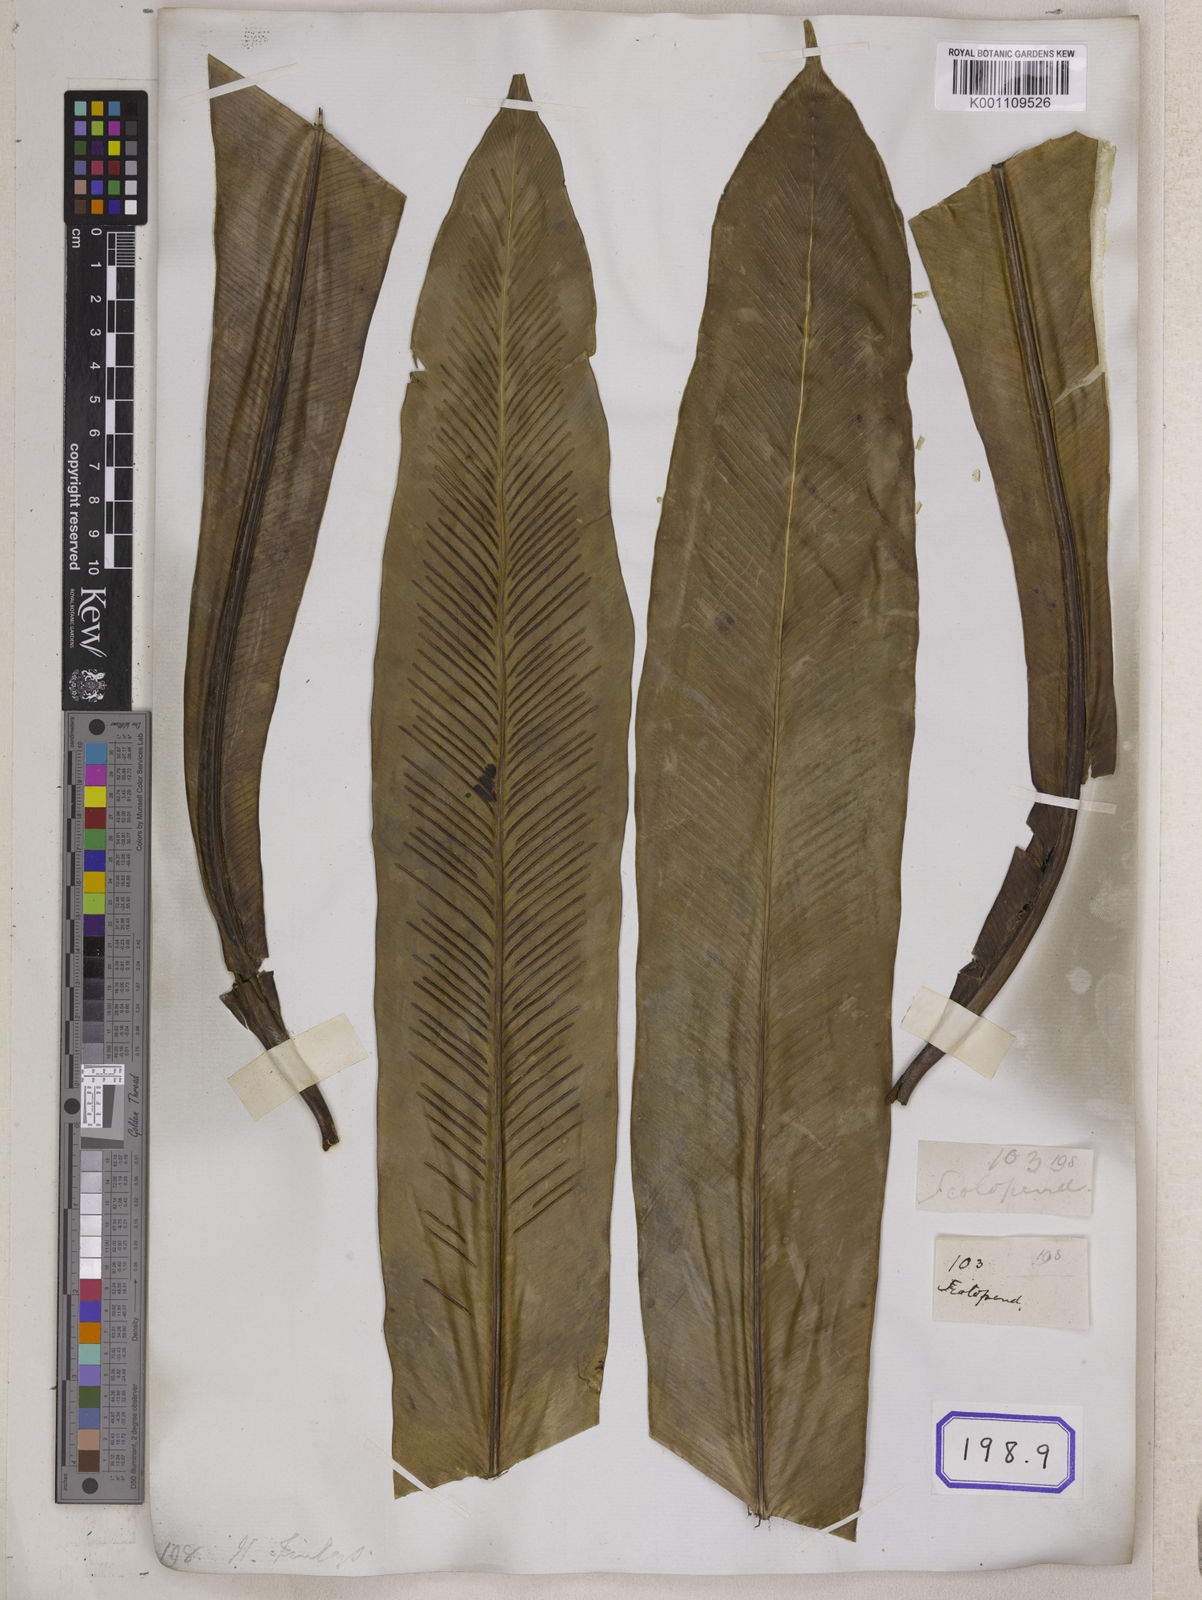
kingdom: Plantae
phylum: Tracheophyta
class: Polypodiopsida
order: Polypodiales
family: Aspleniaceae
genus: Asplenium
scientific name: Asplenium nidus
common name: Bird's-nest fern
